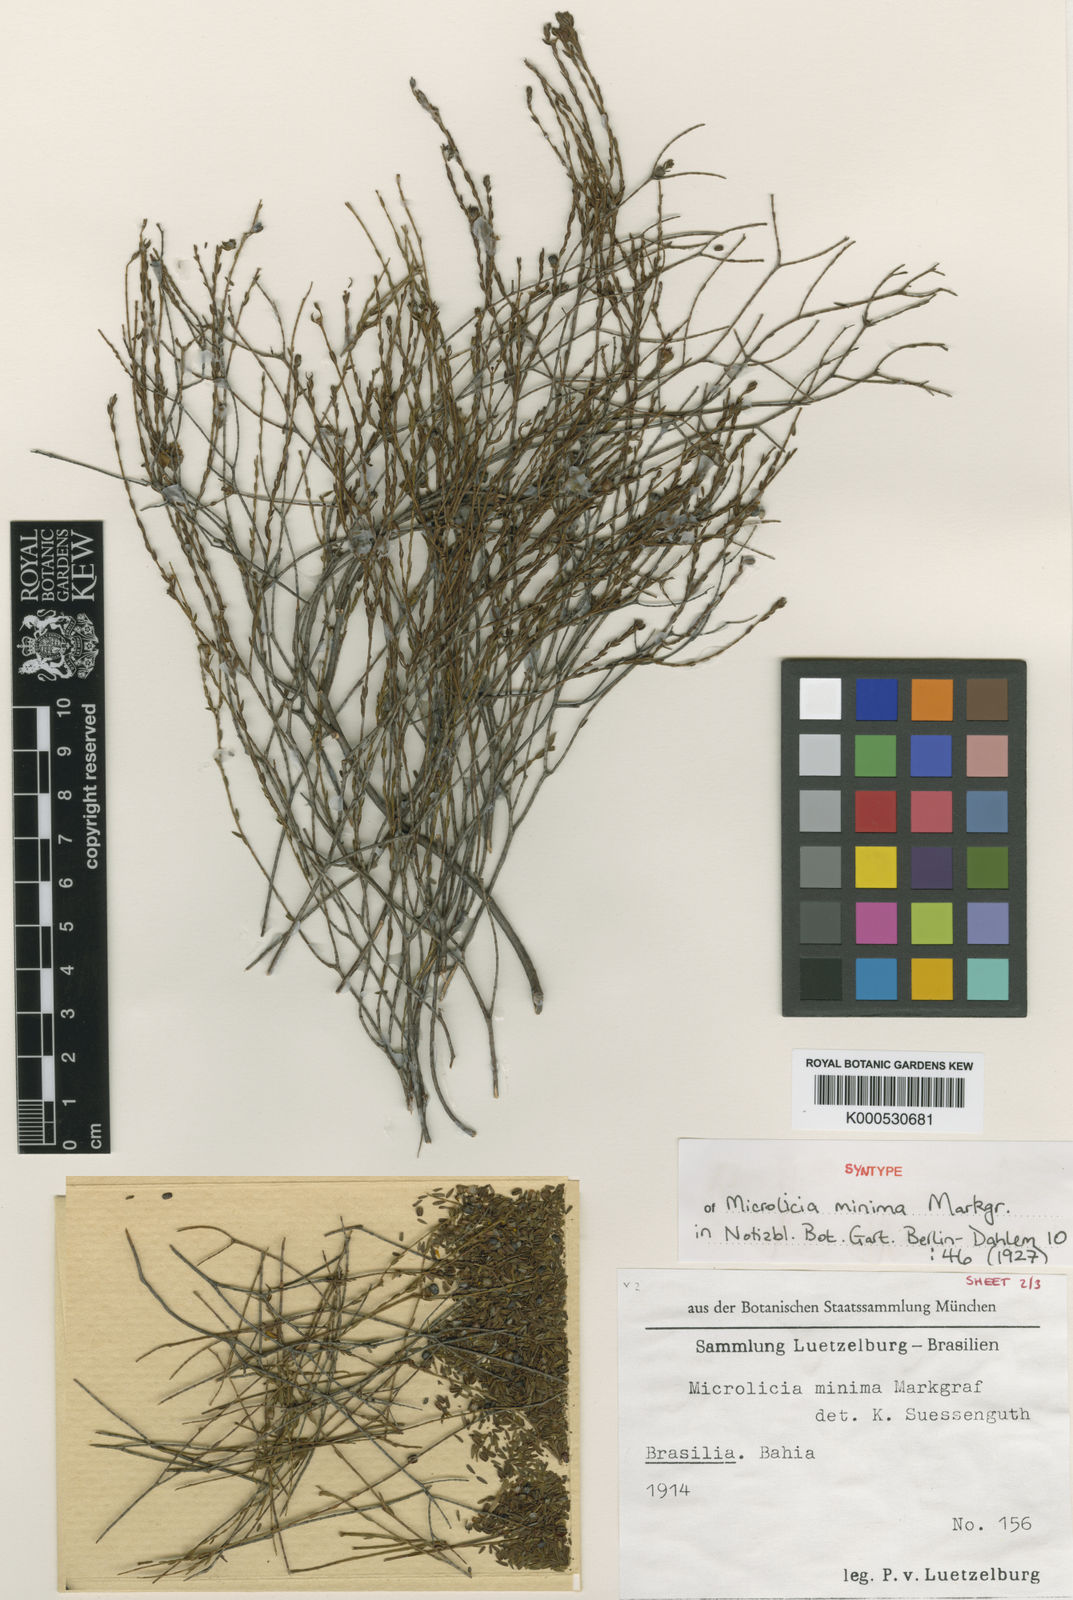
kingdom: Plantae
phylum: Tracheophyta
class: Magnoliopsida
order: Myrtales
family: Melastomataceae
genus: Microlicia
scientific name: Microlicia minima
